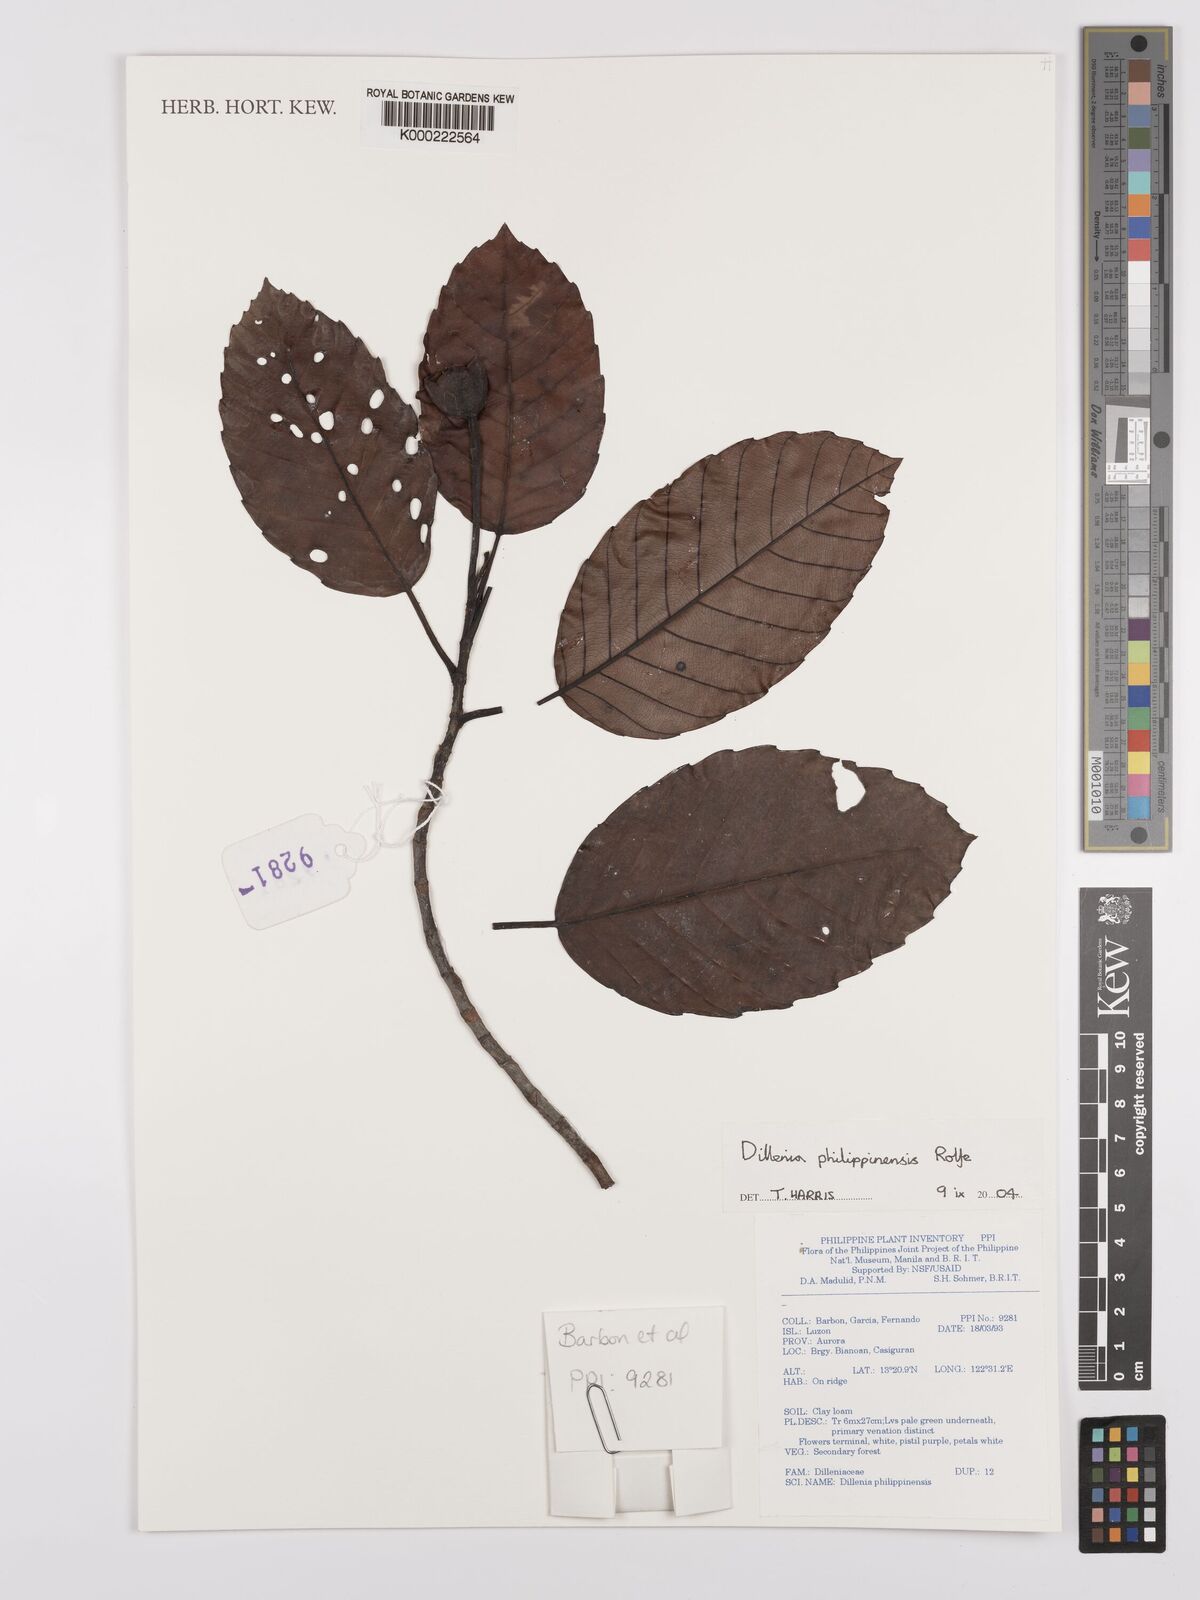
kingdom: Plantae
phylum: Tracheophyta
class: Magnoliopsida
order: Dilleniales
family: Dilleniaceae
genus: Dillenia
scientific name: Dillenia philippinensis
